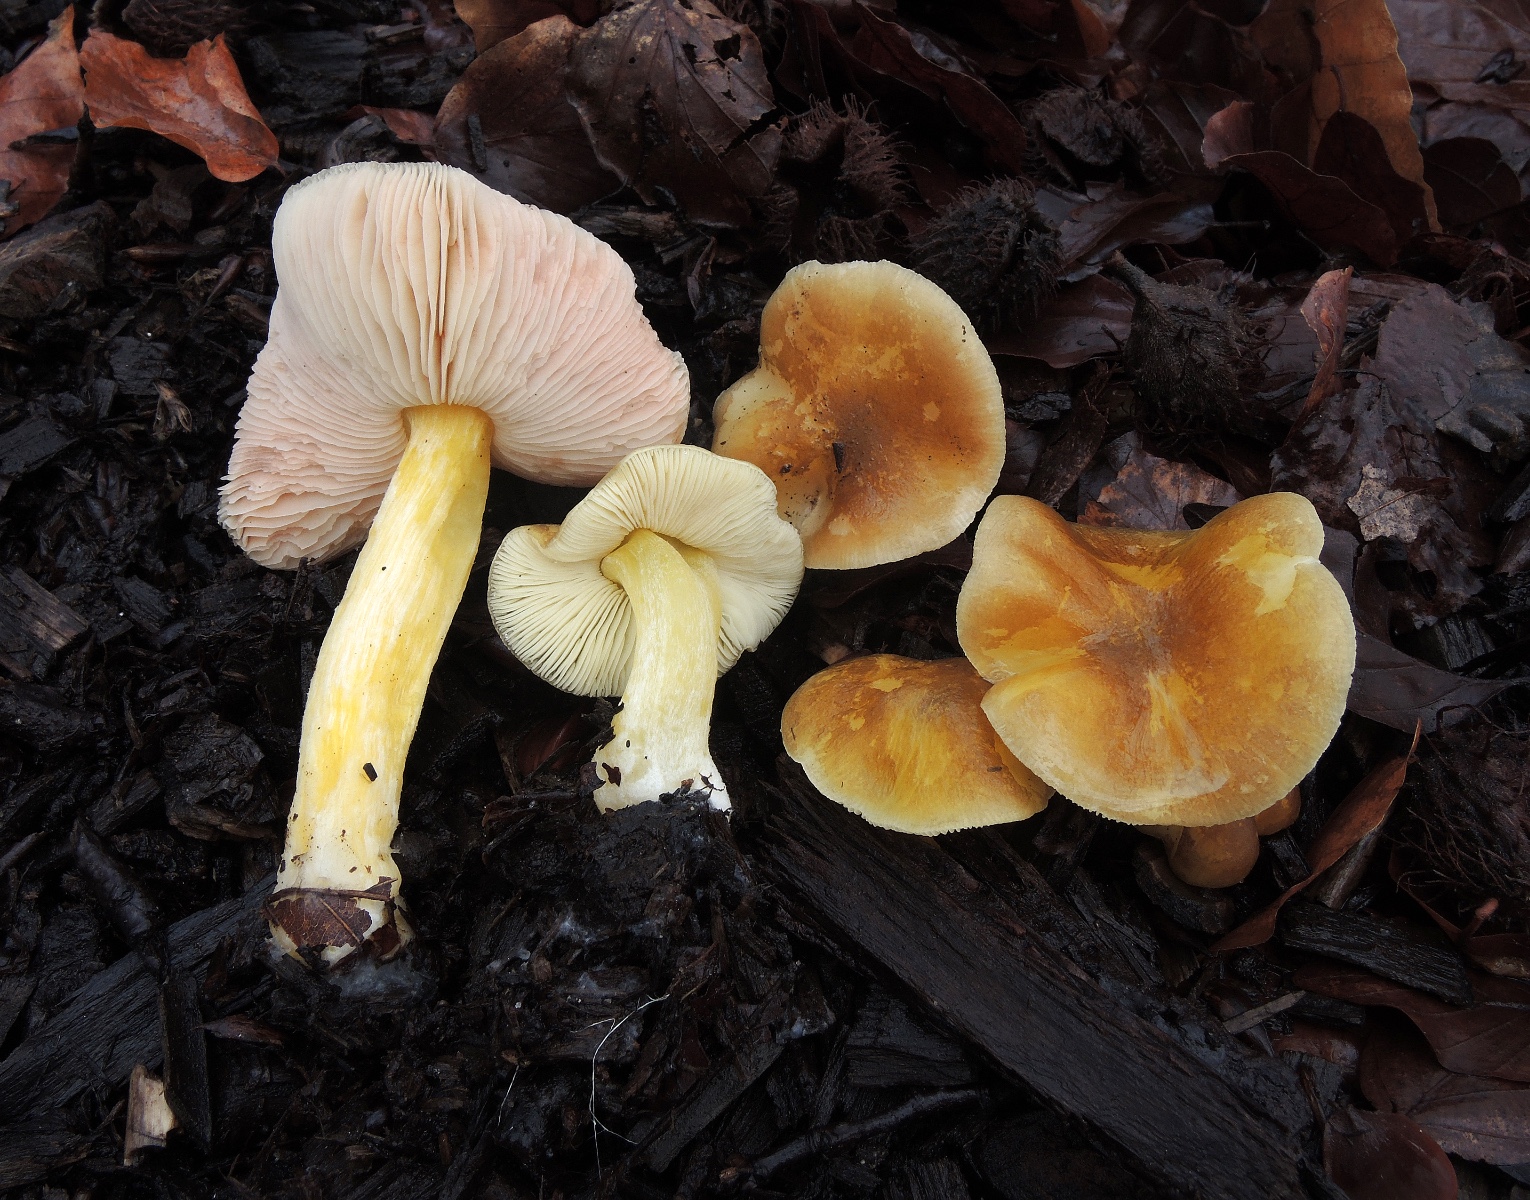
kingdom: Fungi
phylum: Basidiomycota
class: Agaricomycetes
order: Agaricales
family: Pluteaceae
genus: Pluteus
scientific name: Pluteus vellingae
